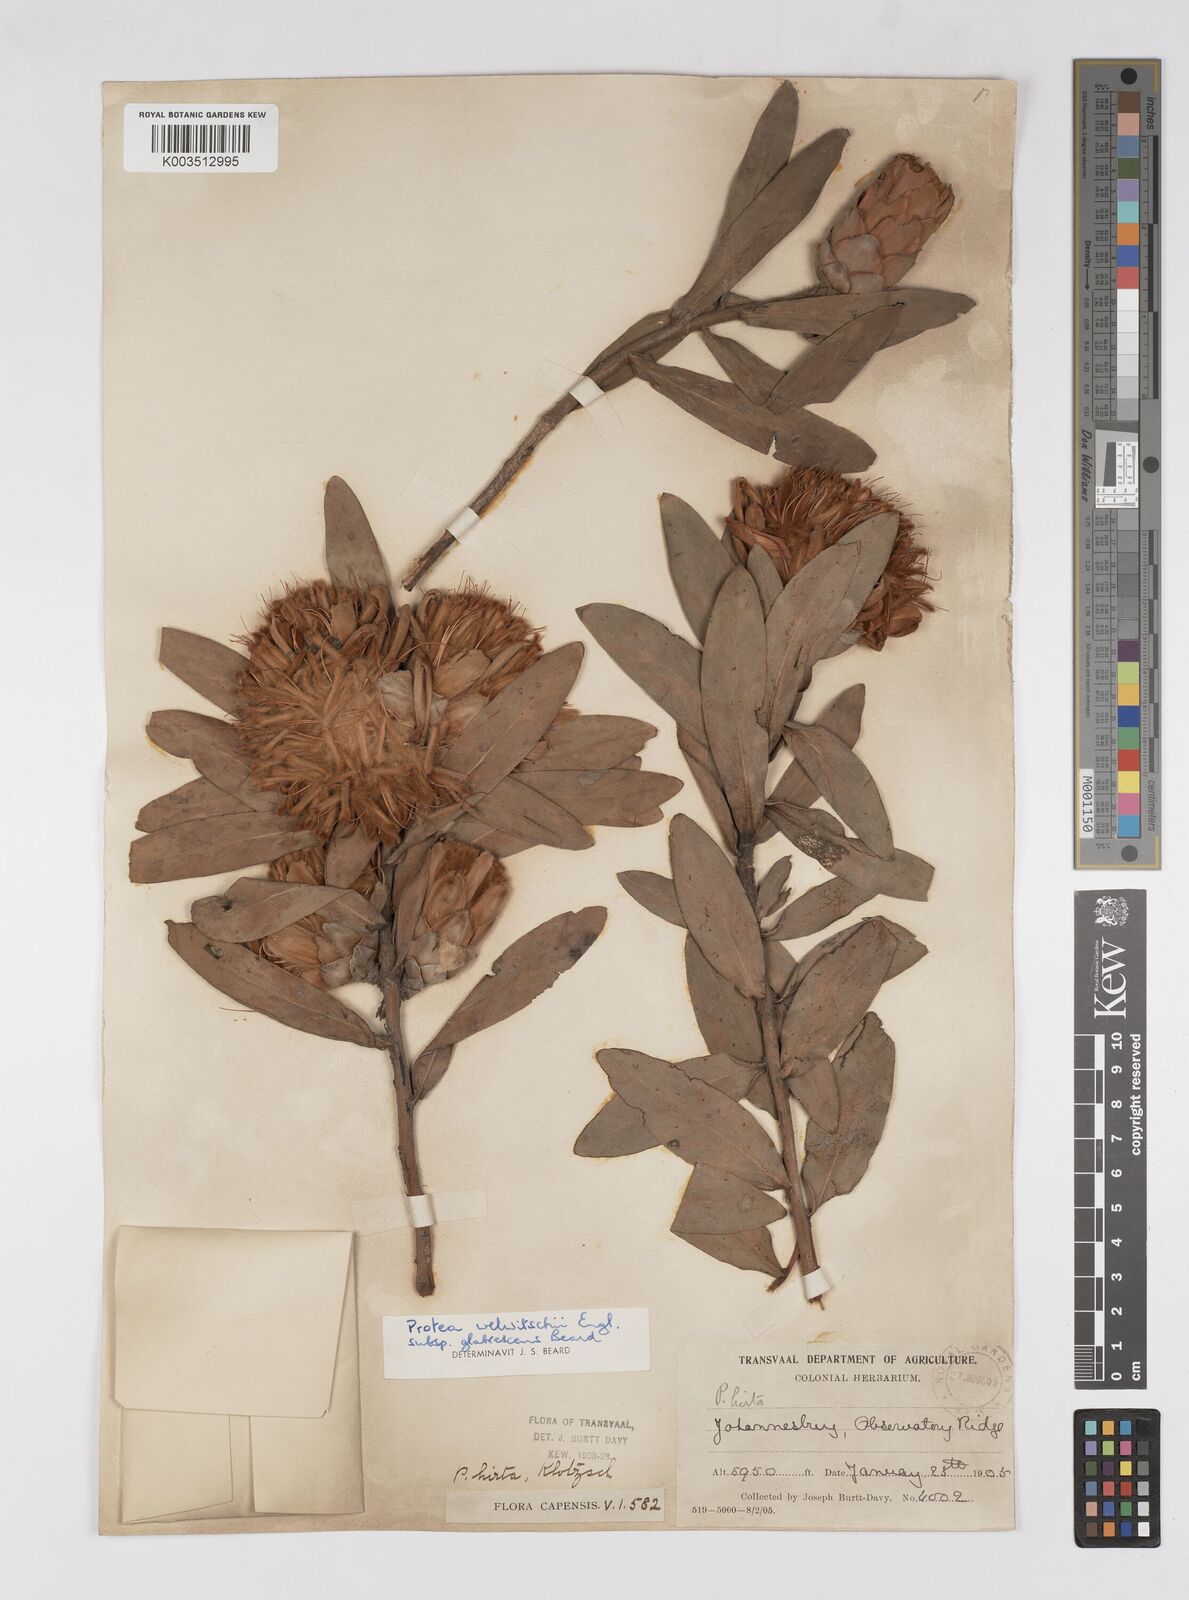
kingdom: Plantae
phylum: Tracheophyta
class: Magnoliopsida
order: Proteales
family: Proteaceae
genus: Protea
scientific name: Protea welwitschii
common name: Cluster-head protea
